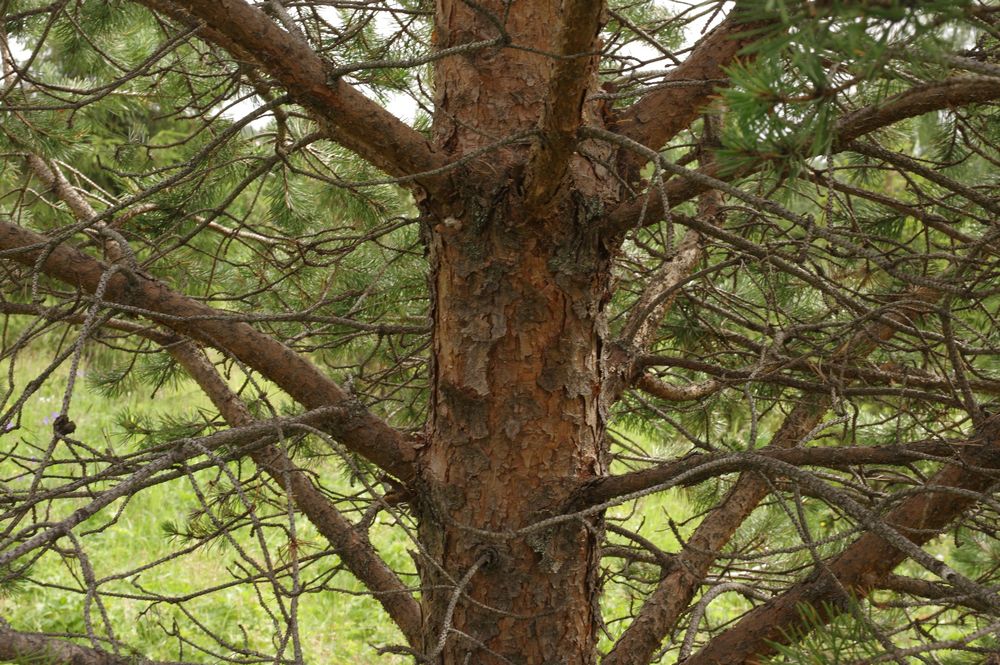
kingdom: Plantae
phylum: Tracheophyta
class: Pinopsida
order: Pinales
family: Pinaceae
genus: Pinus
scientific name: Pinus sylvestris
